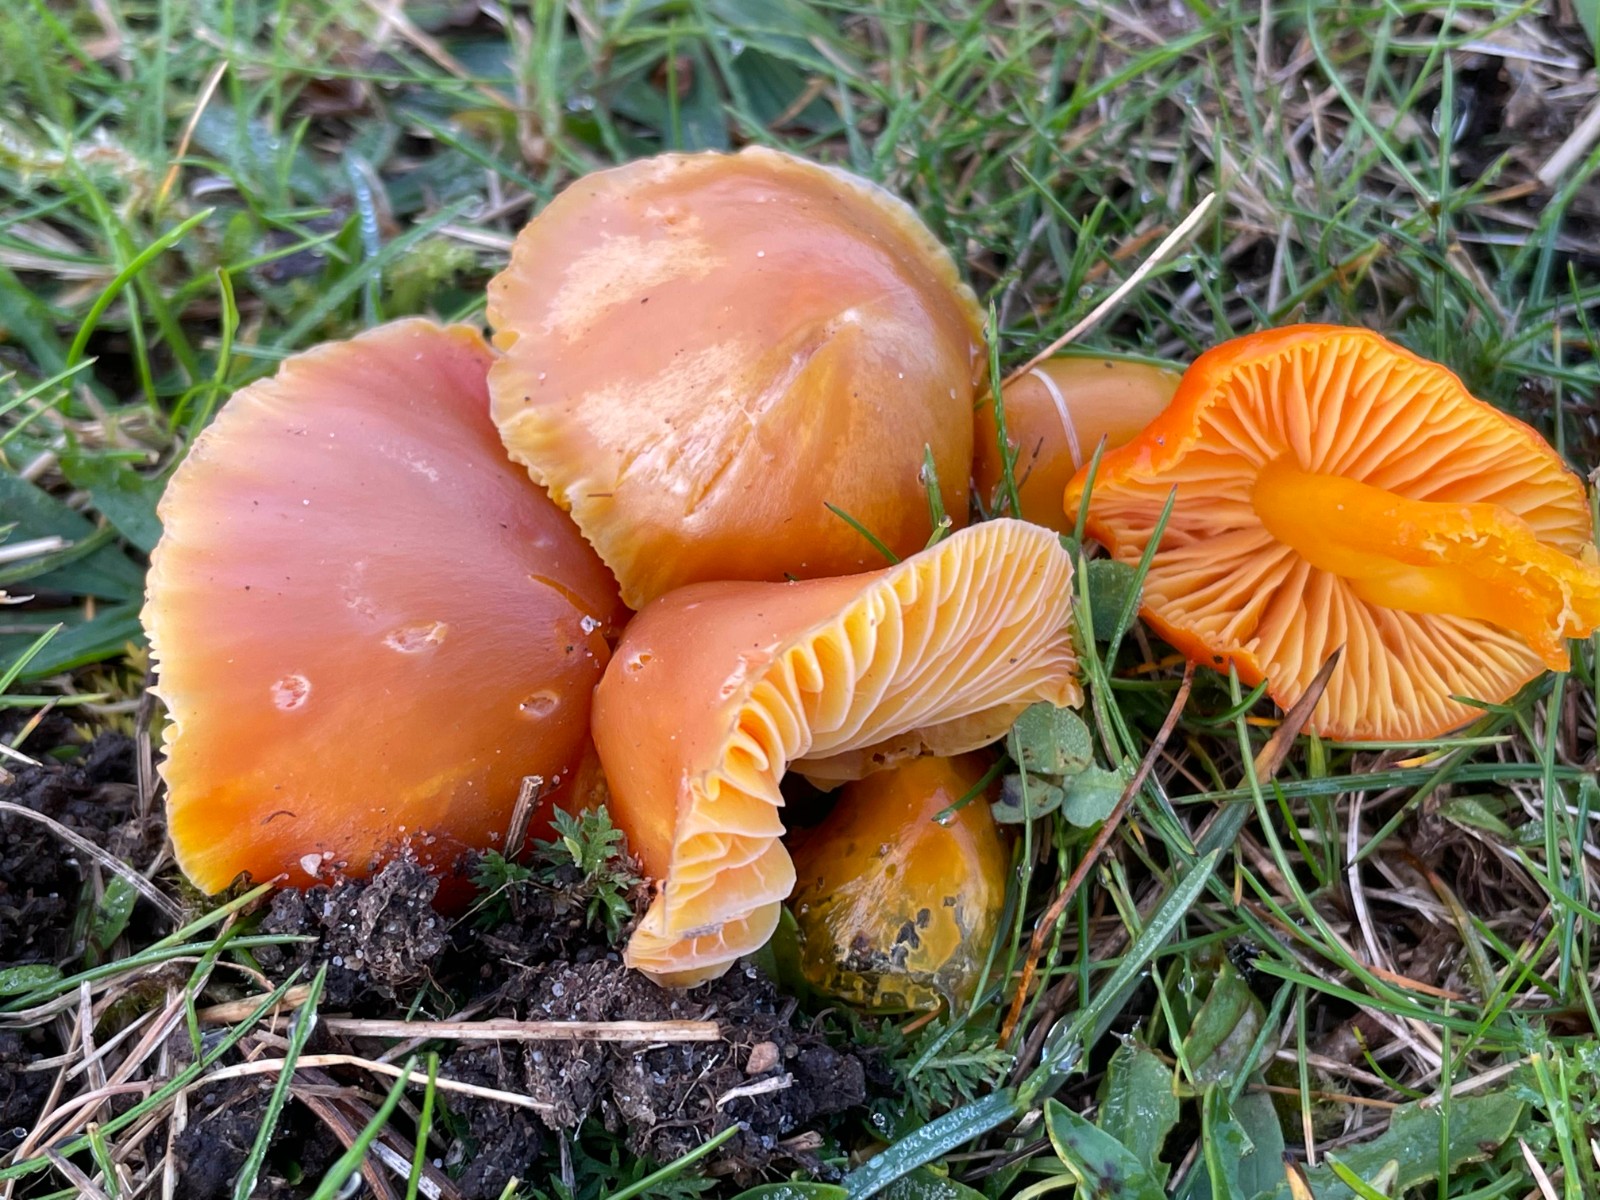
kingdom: Fungi
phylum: Basidiomycota
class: Agaricomycetes
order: Agaricales
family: Hygrophoraceae
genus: Hygrocybe
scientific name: Hygrocybe ceracea
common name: voksgul vokshat
